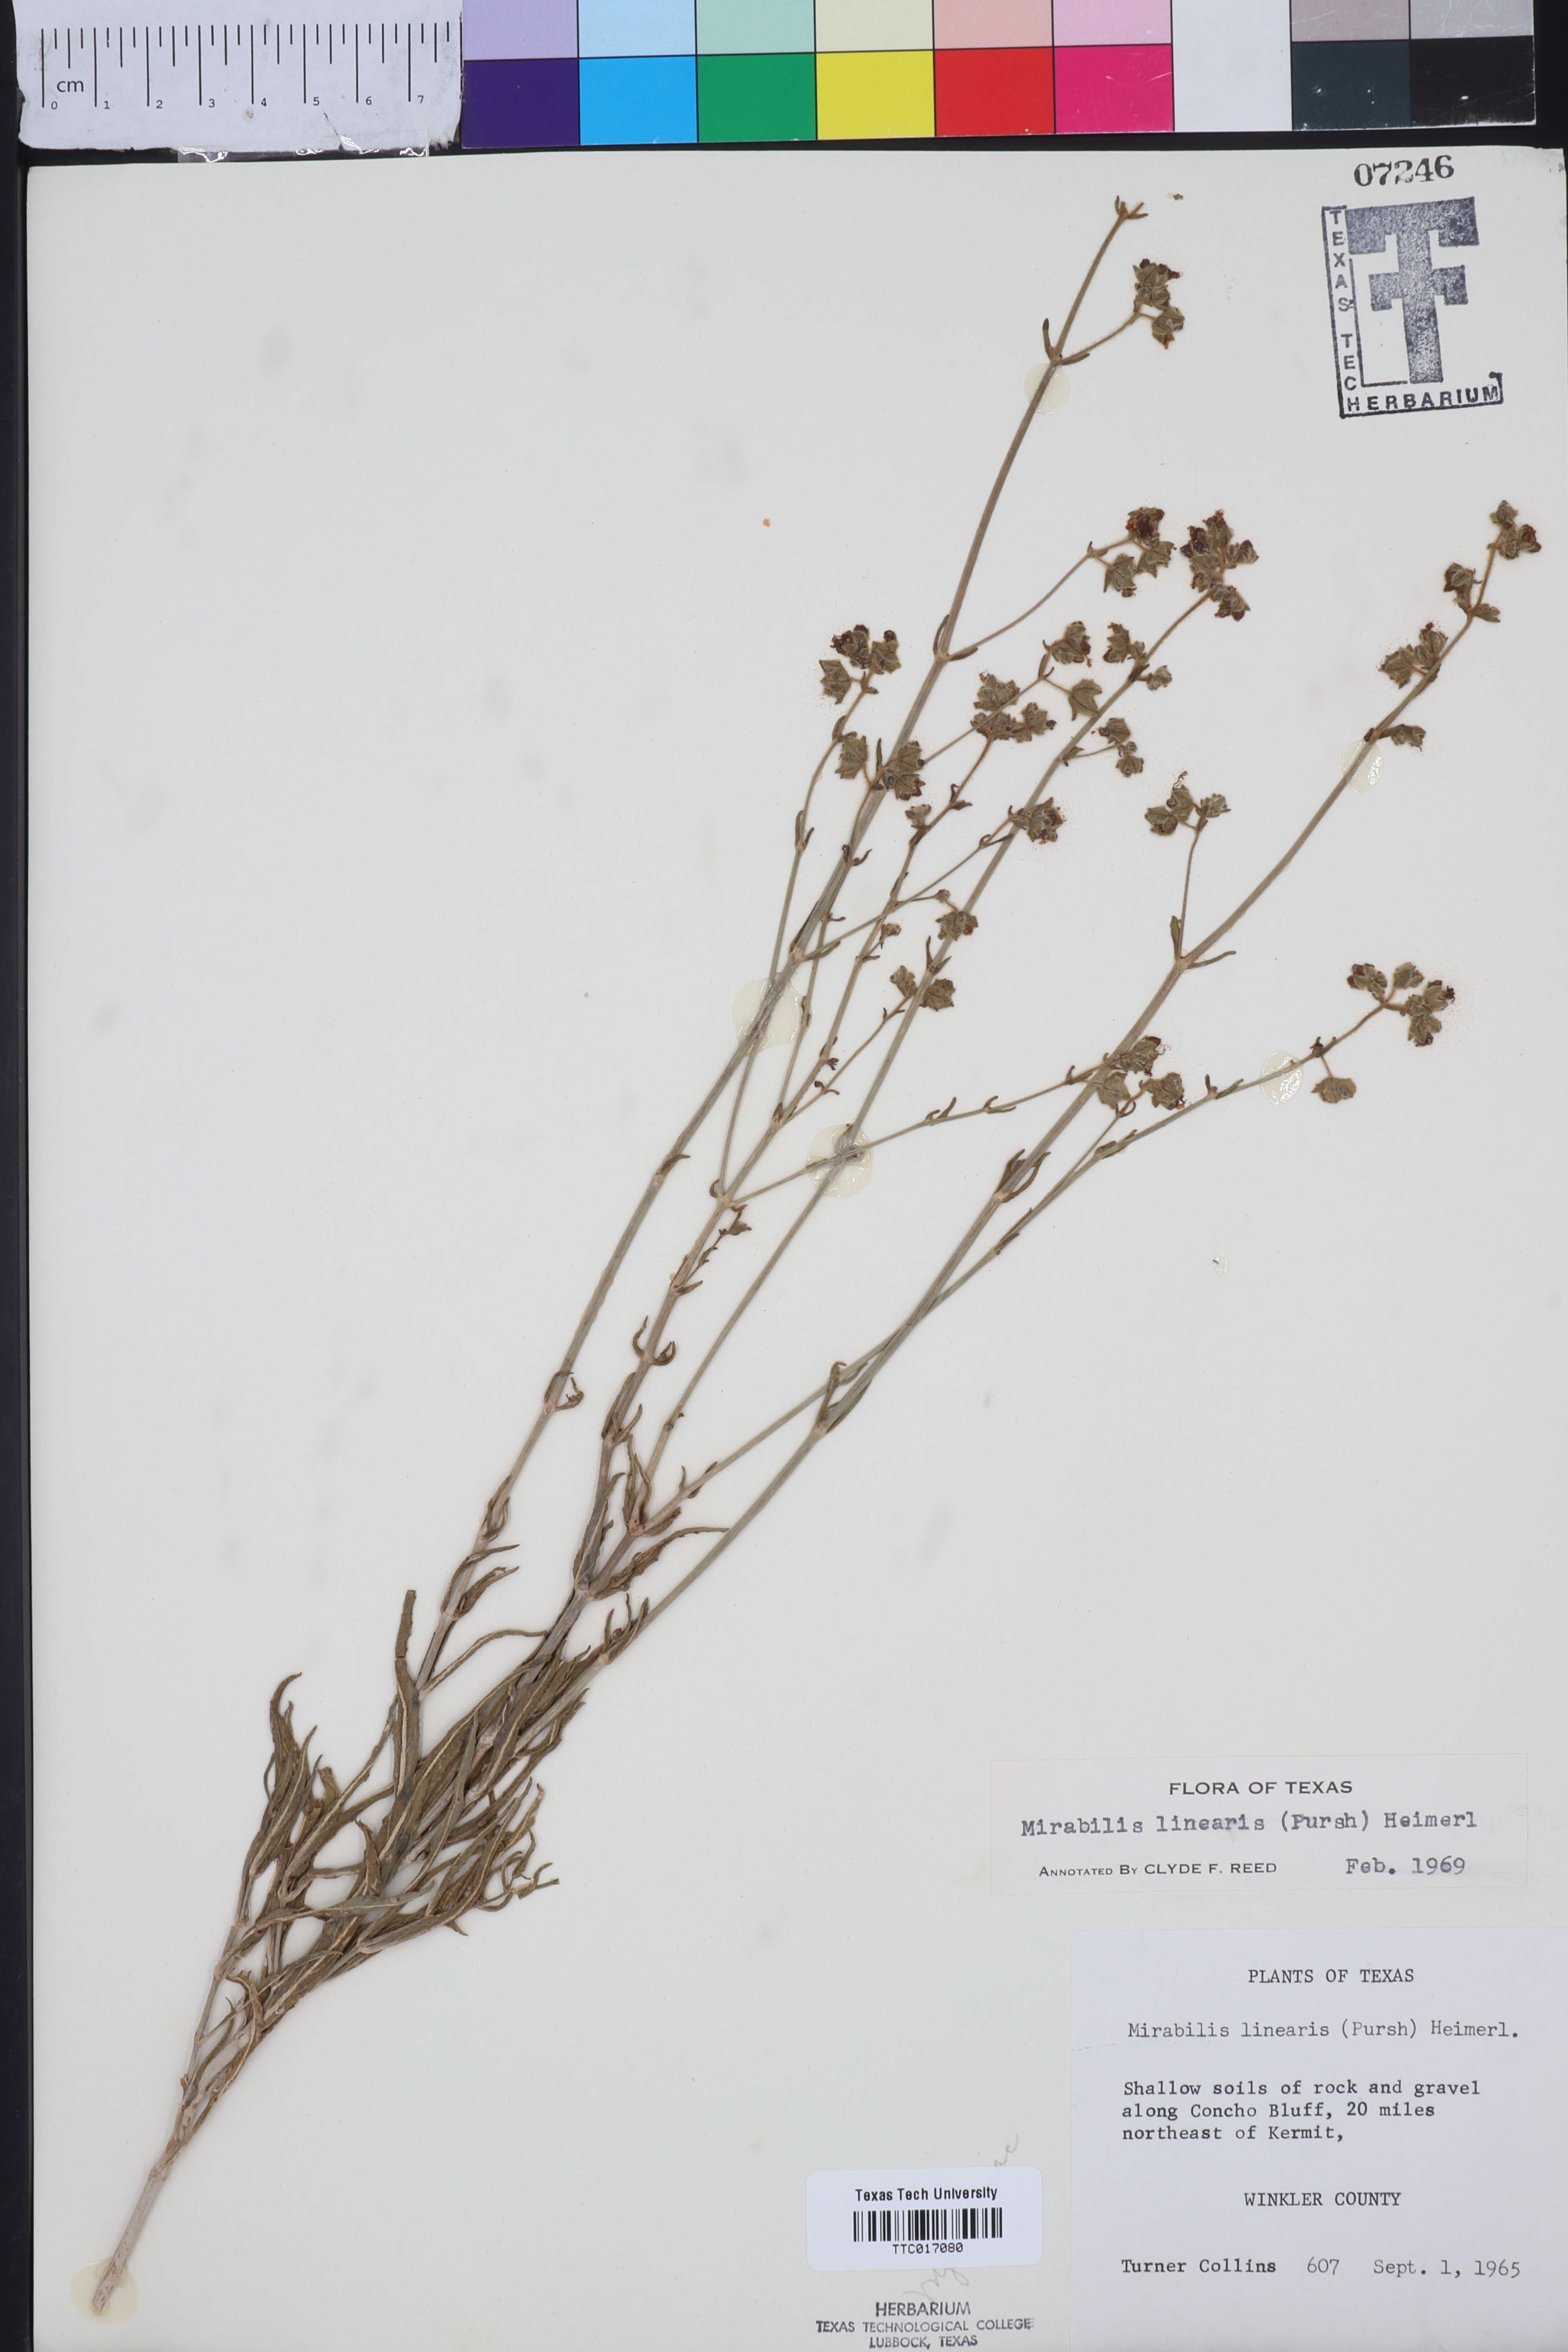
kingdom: Plantae
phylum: Tracheophyta
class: Magnoliopsida
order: Caryophyllales
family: Nyctaginaceae
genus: Mirabilis
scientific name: Mirabilis linearis
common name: Linear-leaved four-o'clock
